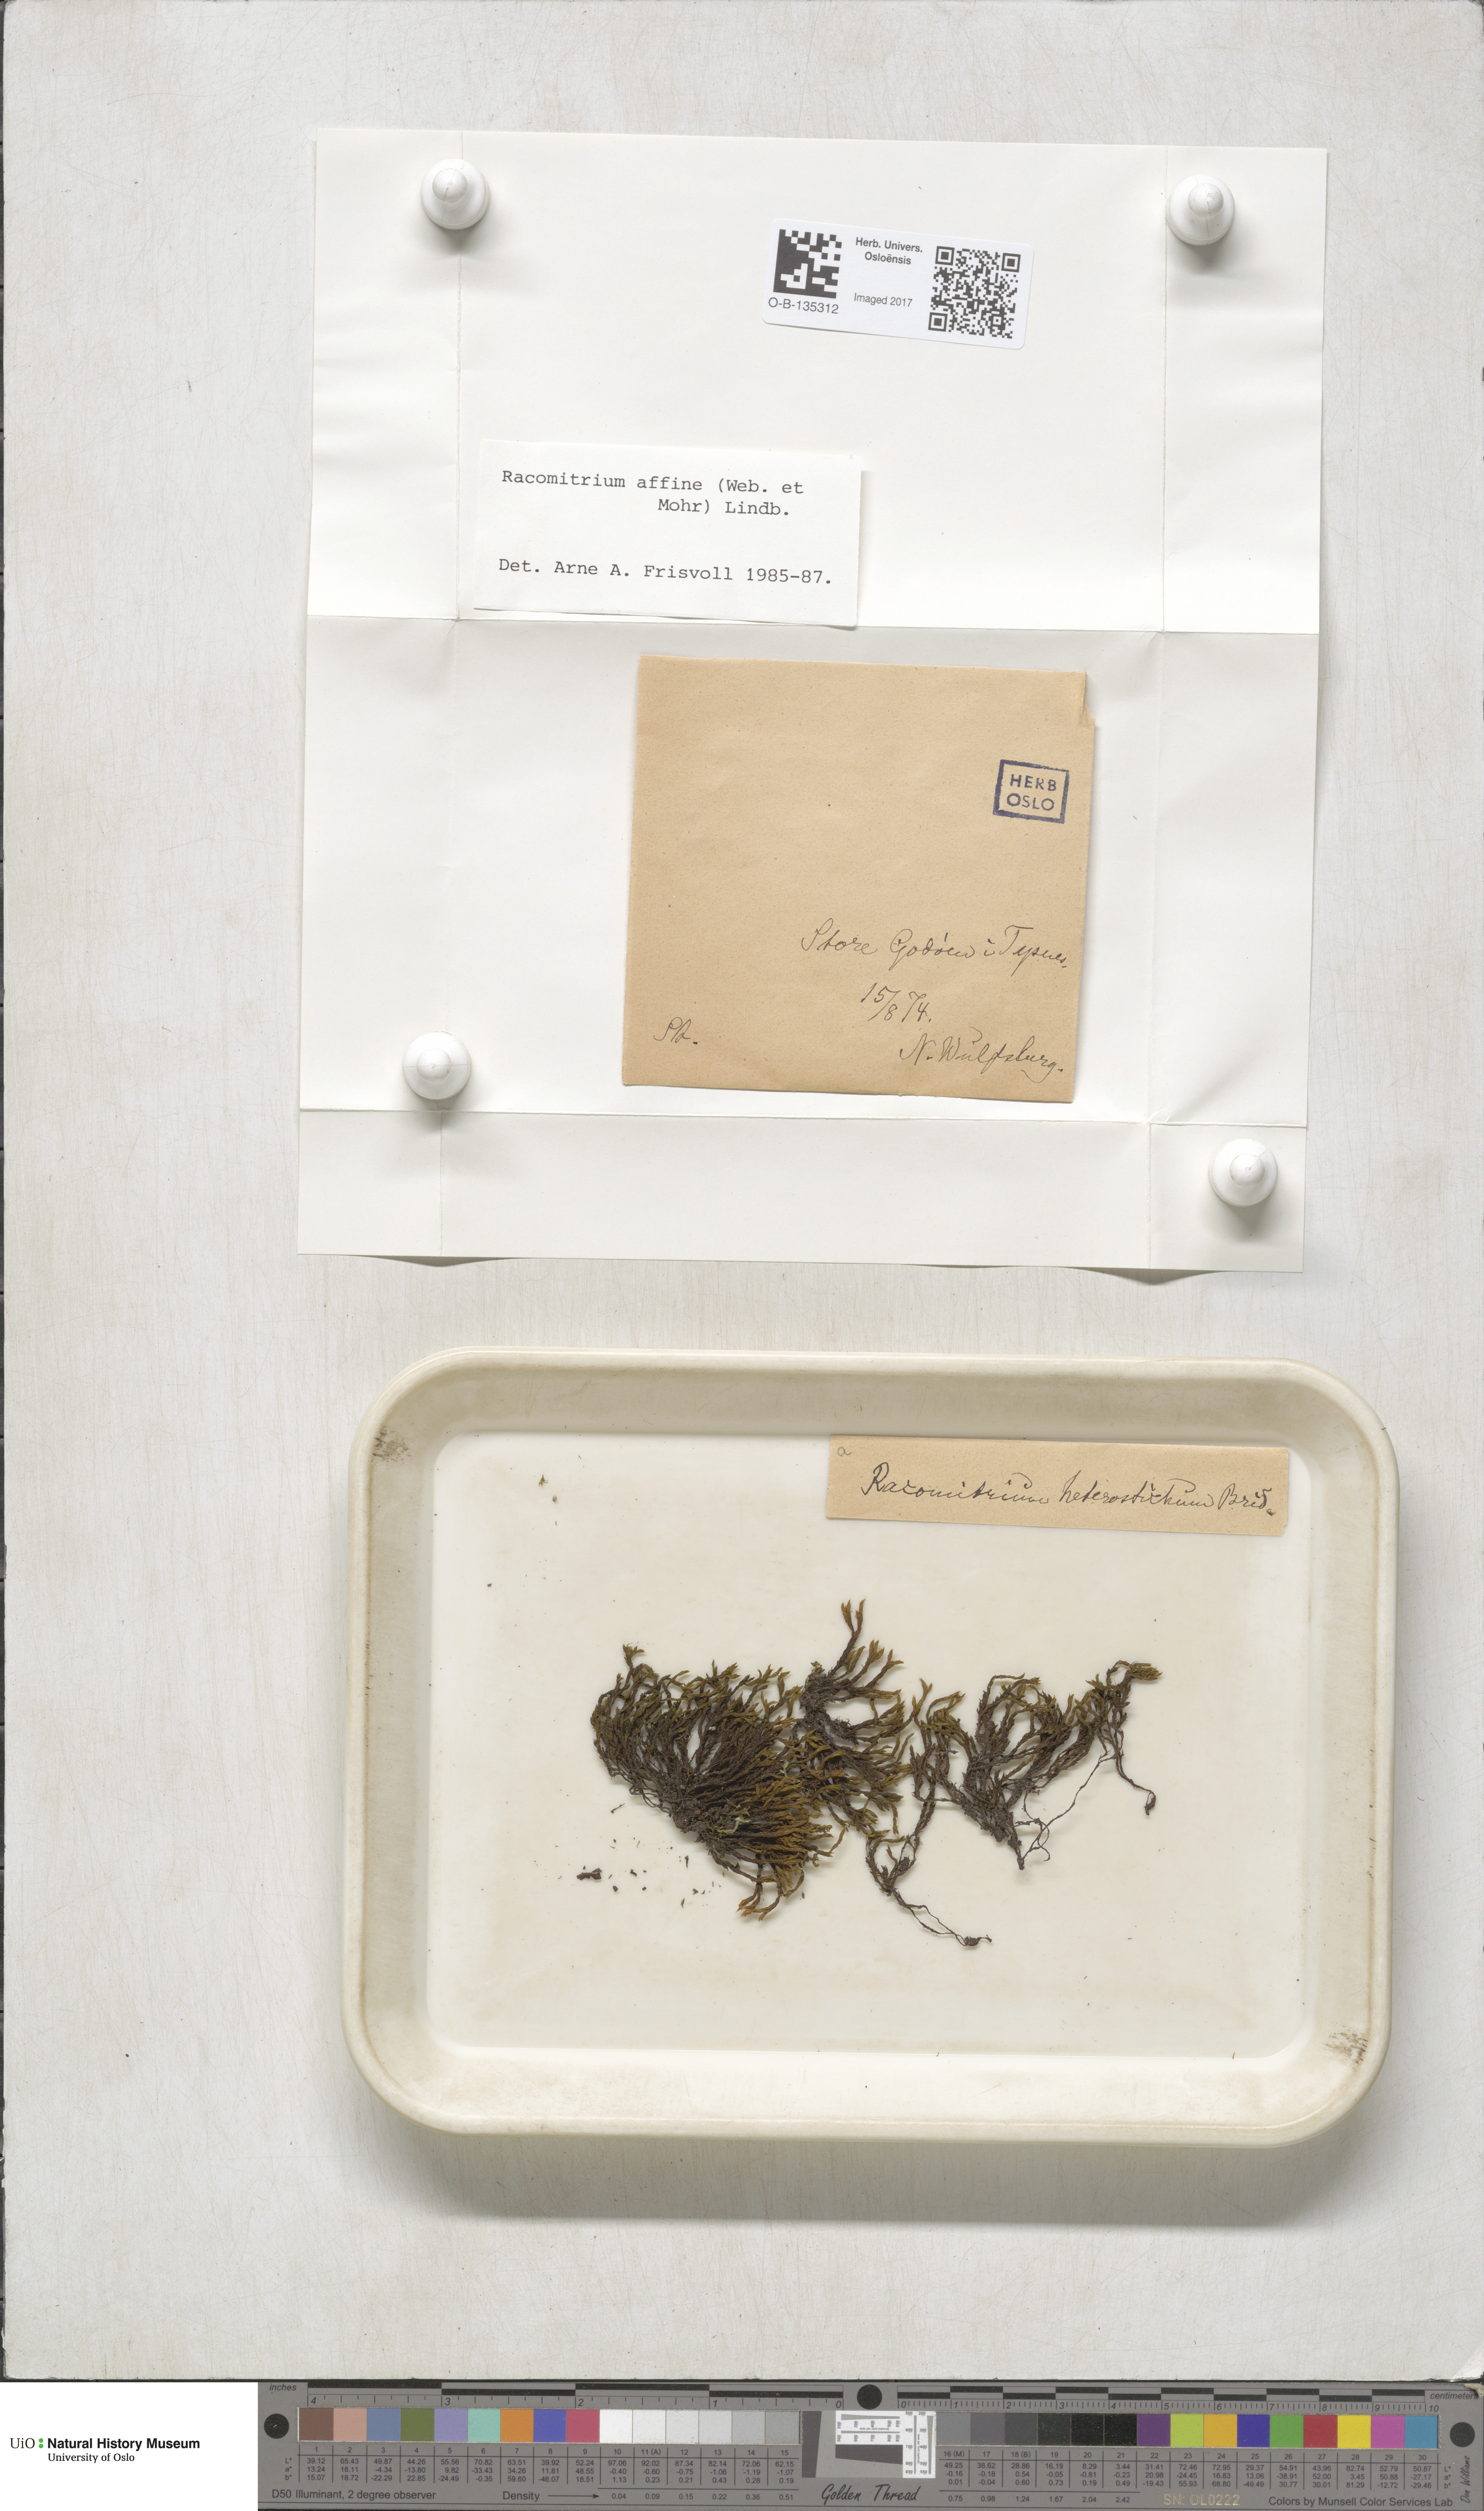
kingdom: Plantae
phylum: Bryophyta
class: Bryopsida
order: Grimmiales
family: Grimmiaceae
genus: Bucklandiella
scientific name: Bucklandiella affinis
